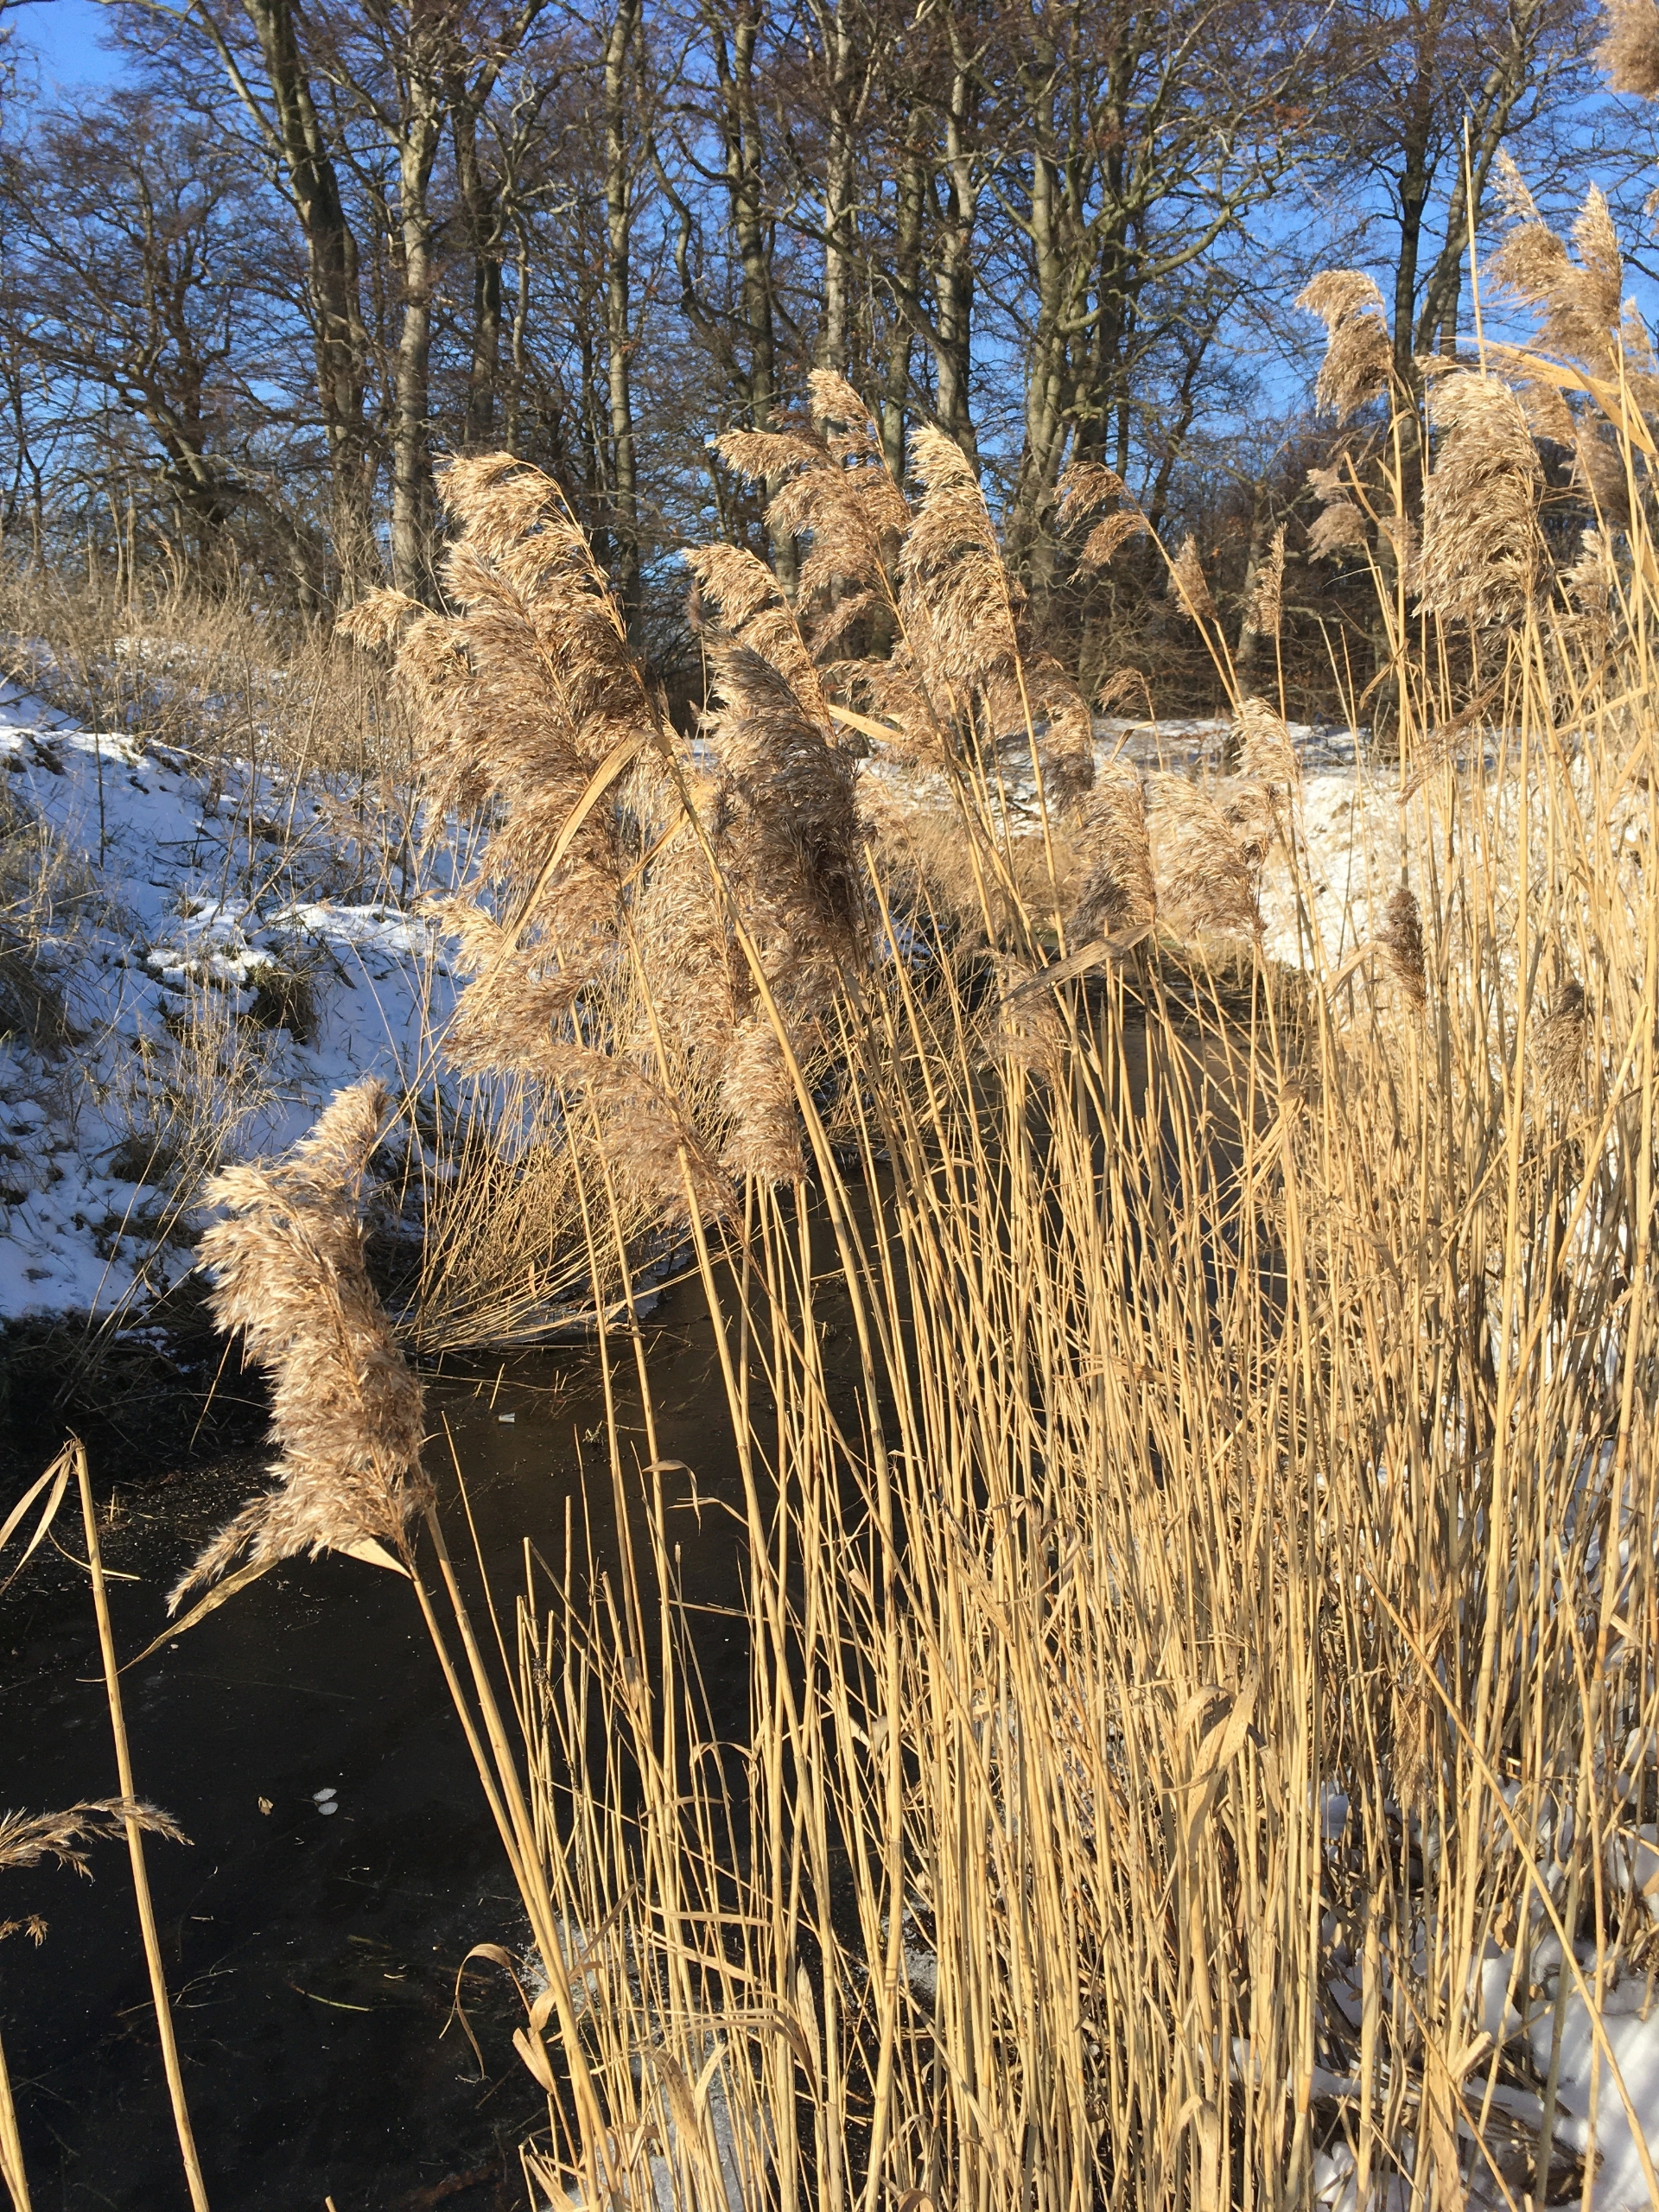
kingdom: Plantae
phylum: Tracheophyta
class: Liliopsida
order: Poales
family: Poaceae
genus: Phragmites
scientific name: Phragmites australis
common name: Tagrør
